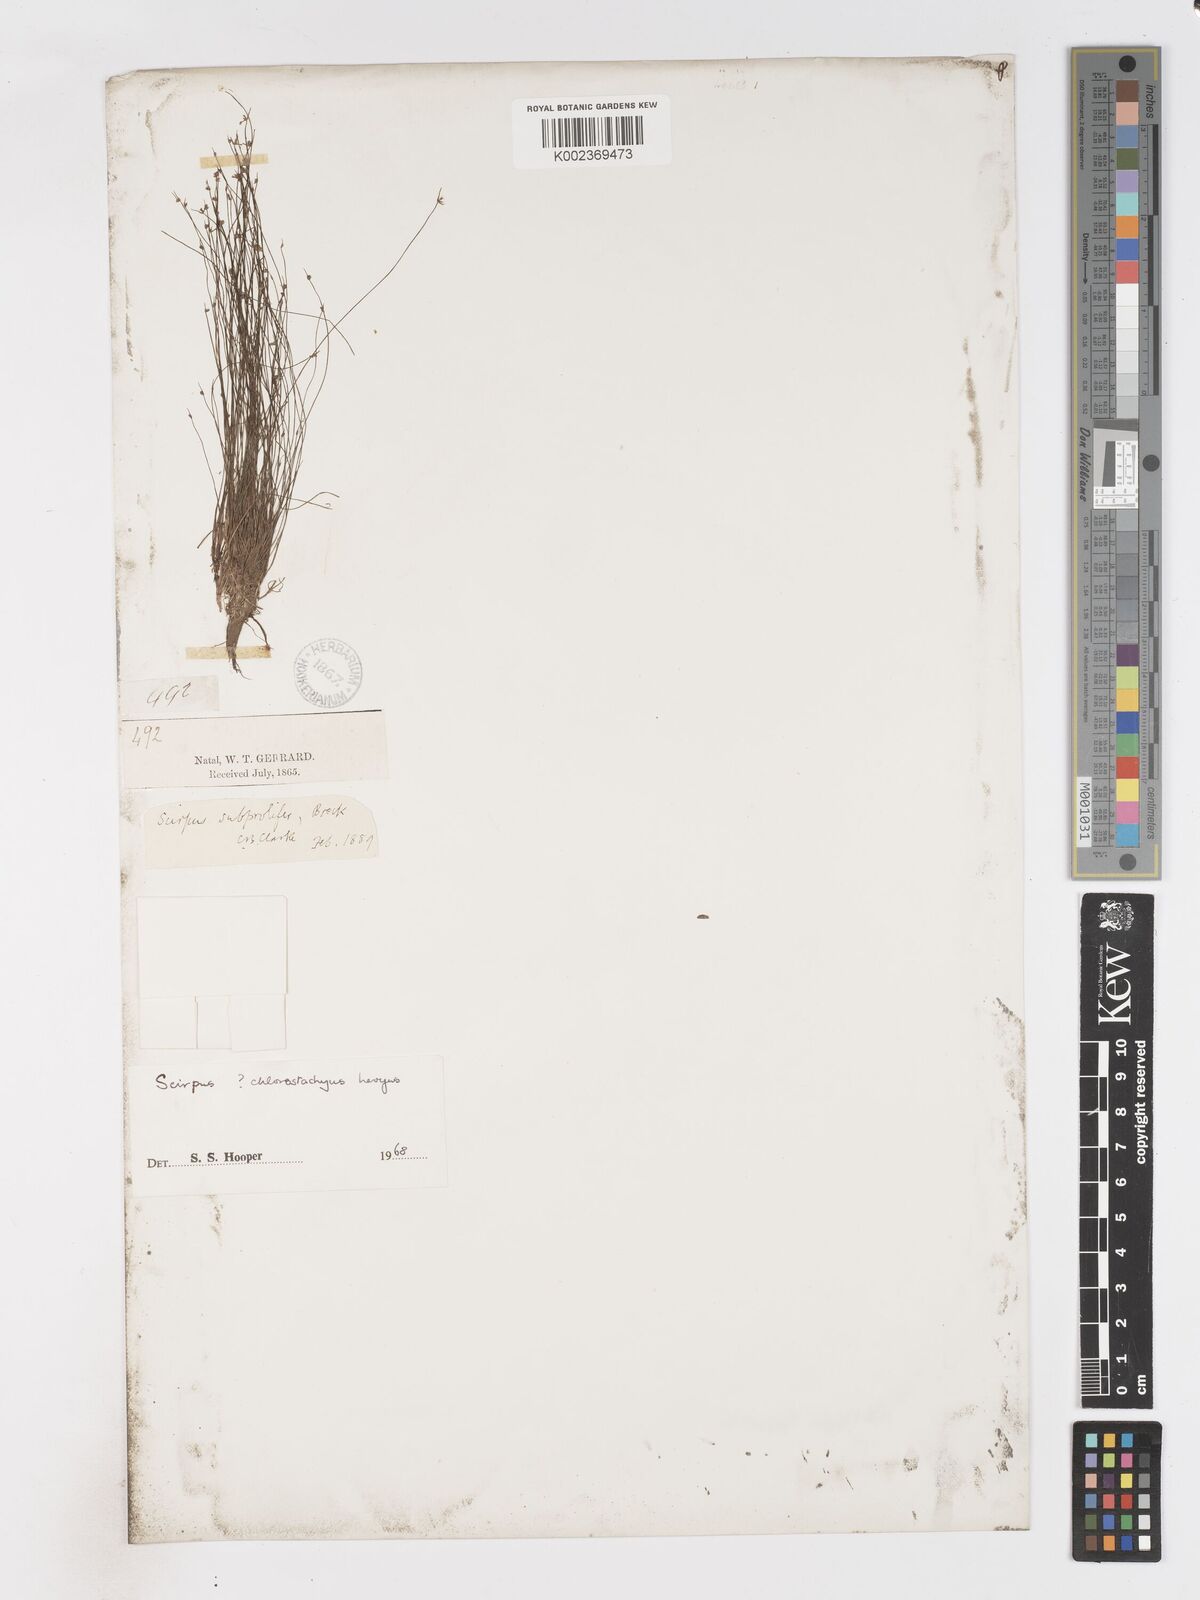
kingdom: Plantae
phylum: Tracheophyta
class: Liliopsida
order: Poales
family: Cyperaceae
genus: Isolepis
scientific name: Isolepis sepulcralis
